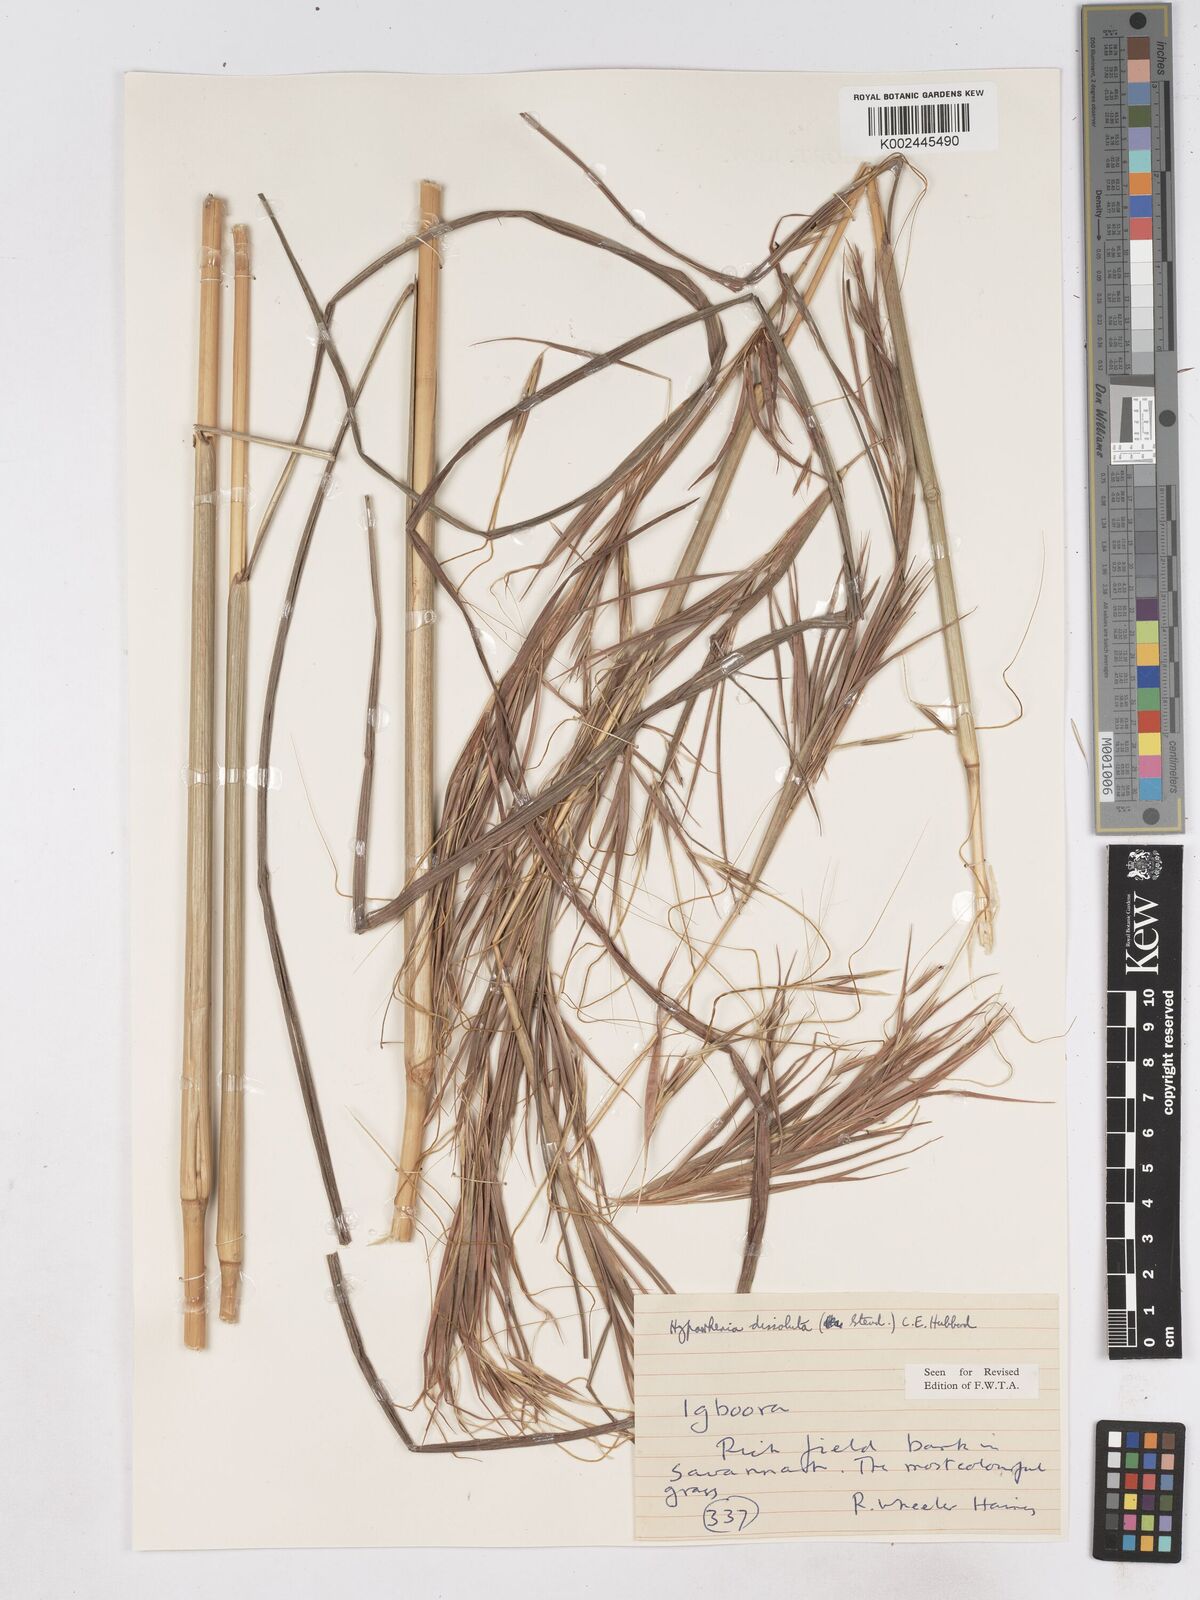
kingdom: Plantae
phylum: Tracheophyta
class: Liliopsida
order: Poales
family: Poaceae
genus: Hyperthelia
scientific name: Hyperthelia dissoluta
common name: Yellow thatching grass
